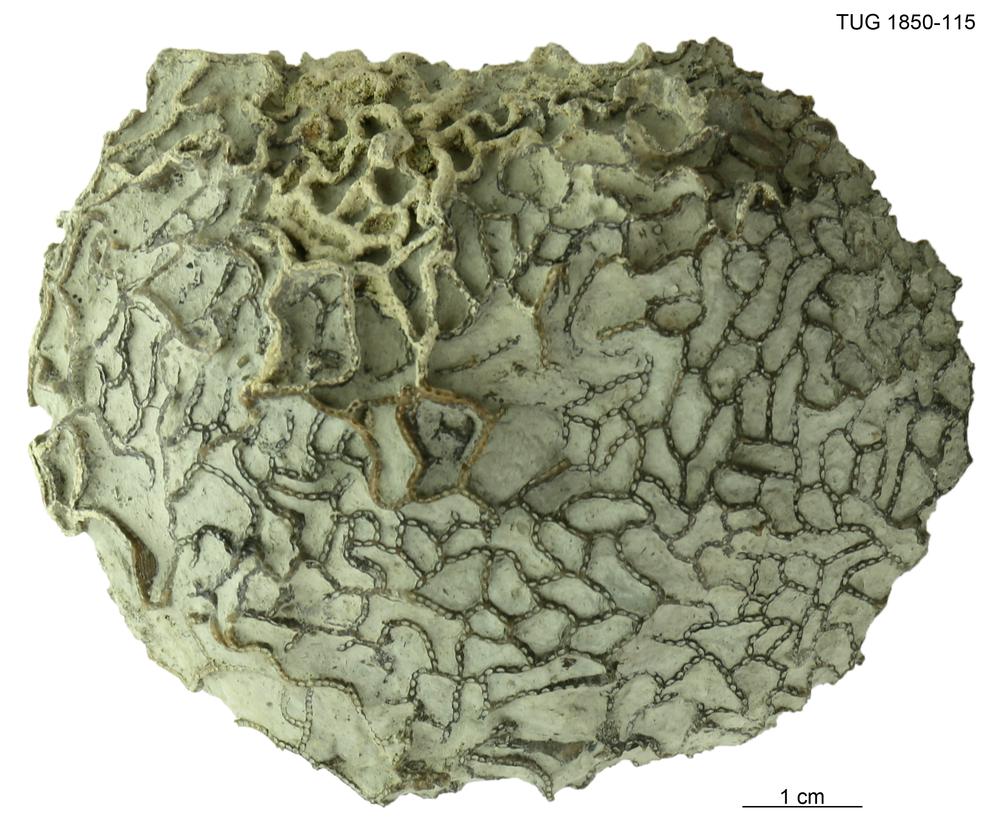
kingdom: Animalia
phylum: Cnidaria
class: Anthozoa
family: Halysitidae
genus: Halysites
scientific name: Halysites
